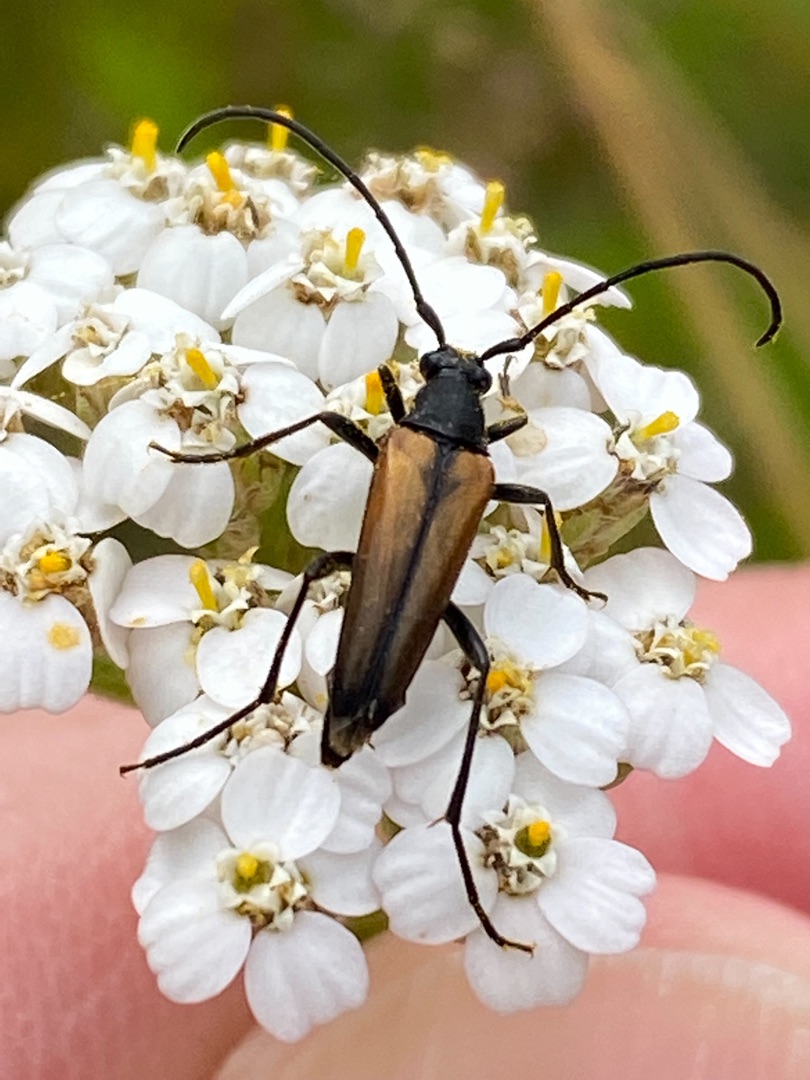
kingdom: Animalia
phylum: Arthropoda
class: Insecta
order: Coleoptera
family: Cerambycidae
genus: Stenurella
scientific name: Stenurella melanura
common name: Sortsømmet blomsterbuk
